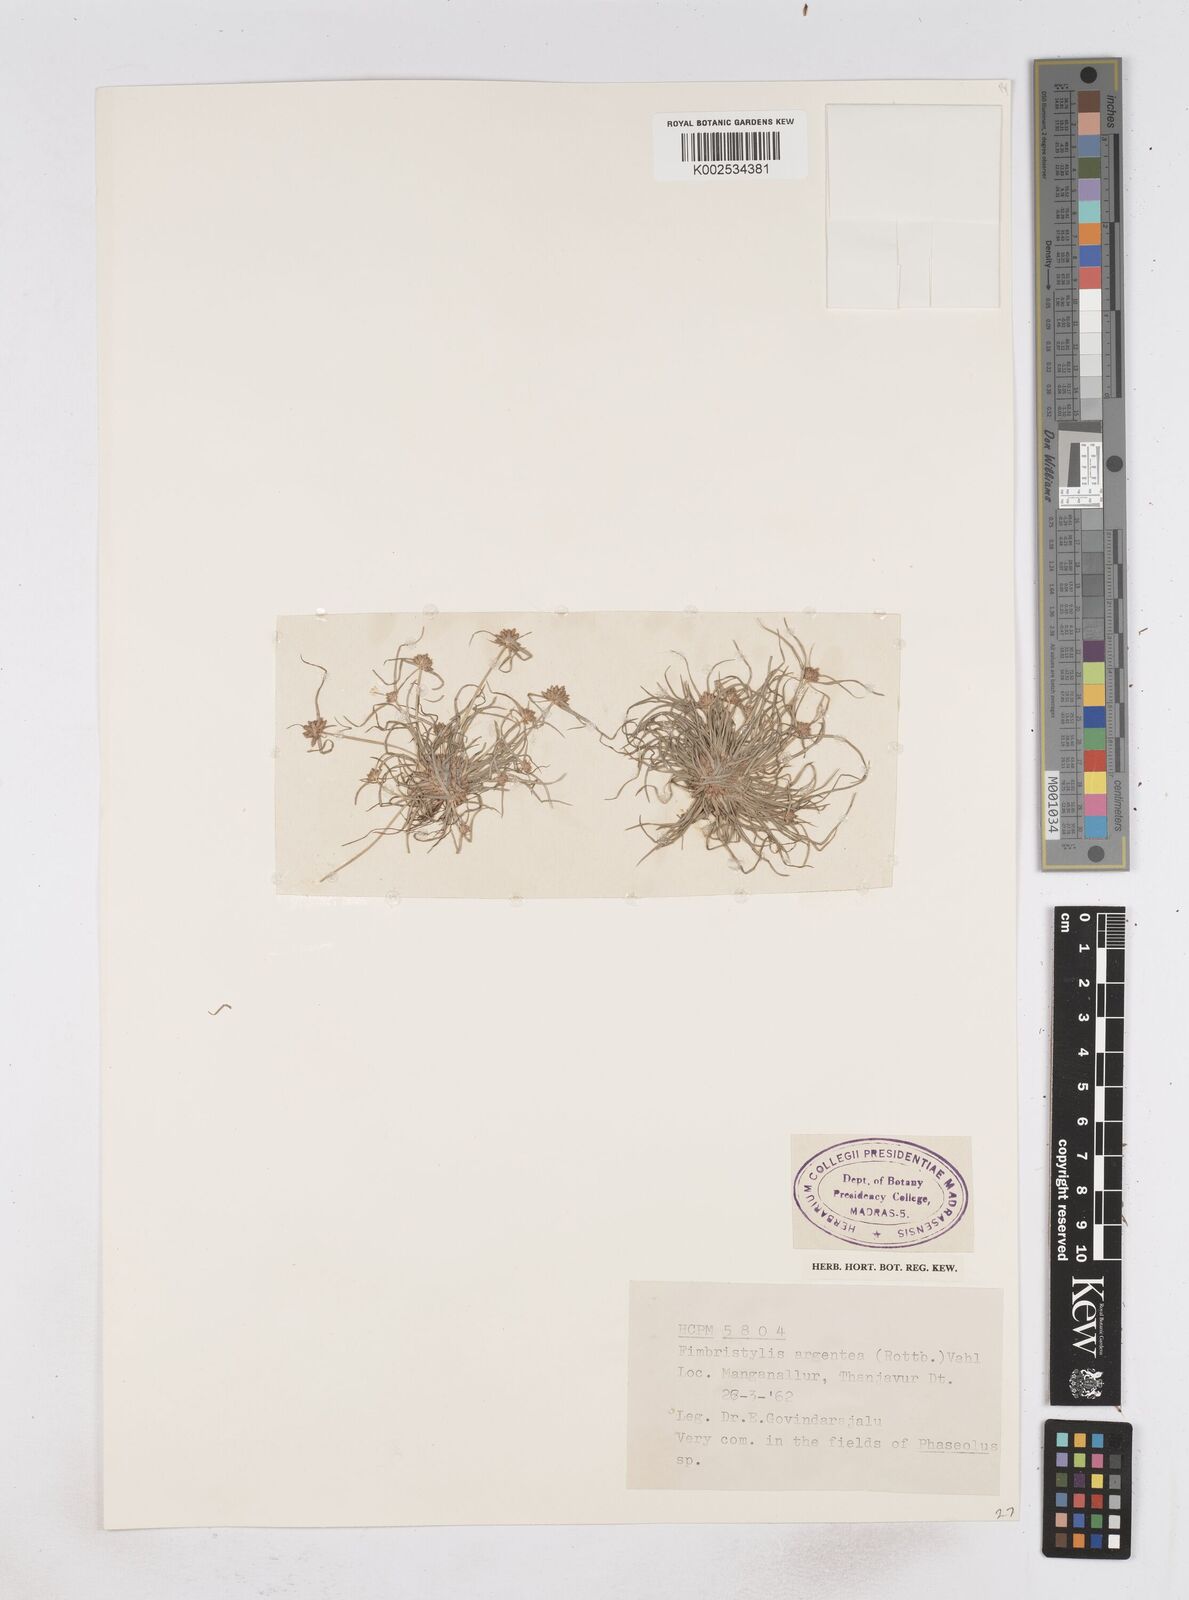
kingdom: Plantae
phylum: Tracheophyta
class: Liliopsida
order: Poales
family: Cyperaceae
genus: Fimbristylis
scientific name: Fimbristylis argentea
